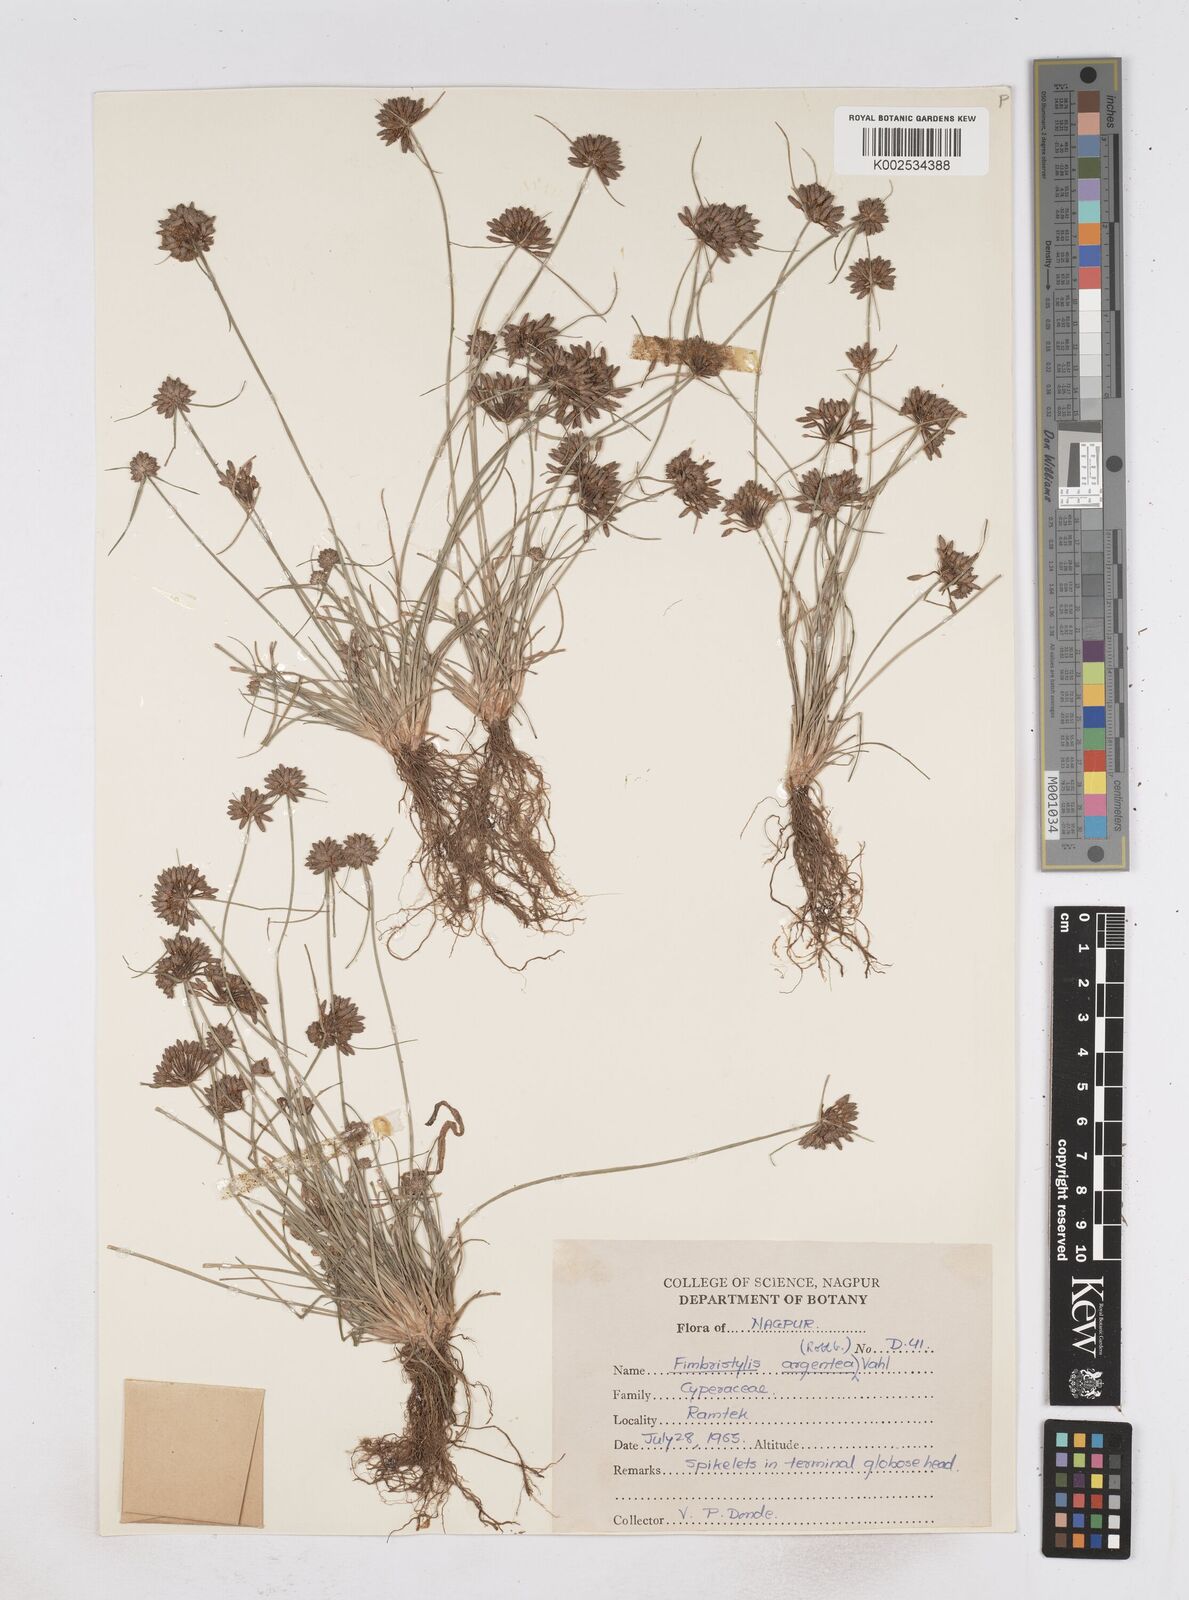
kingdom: Plantae
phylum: Tracheophyta
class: Liliopsida
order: Poales
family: Cyperaceae
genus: Fimbristylis
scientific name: Fimbristylis argentea
